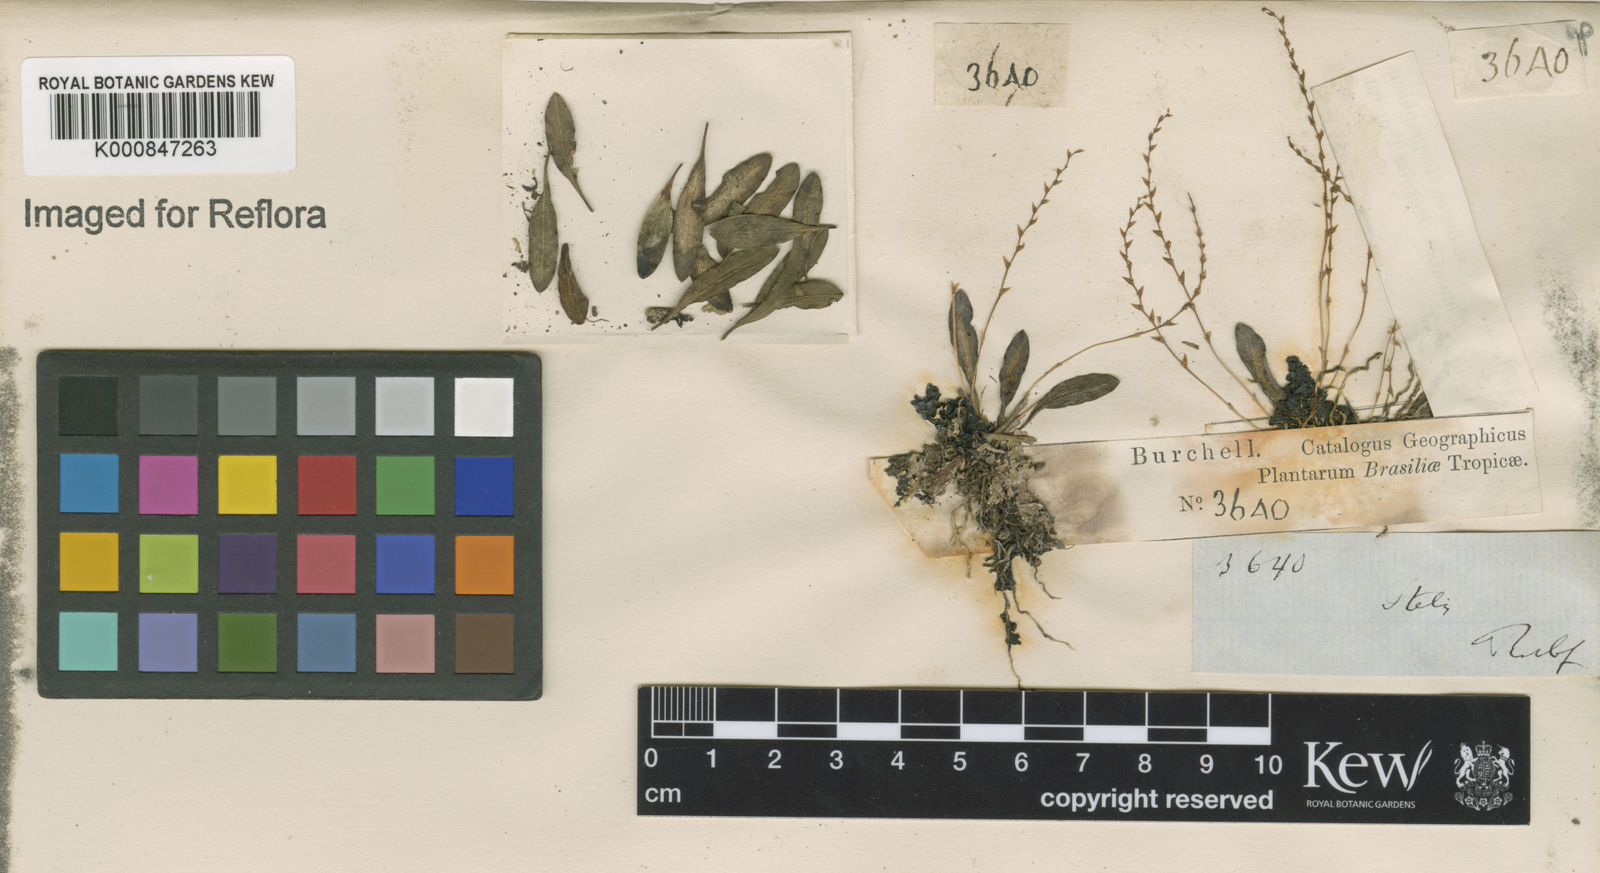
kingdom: Plantae
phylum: Tracheophyta
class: Liliopsida
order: Asparagales
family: Orchidaceae
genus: Stelis
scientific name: Stelis
